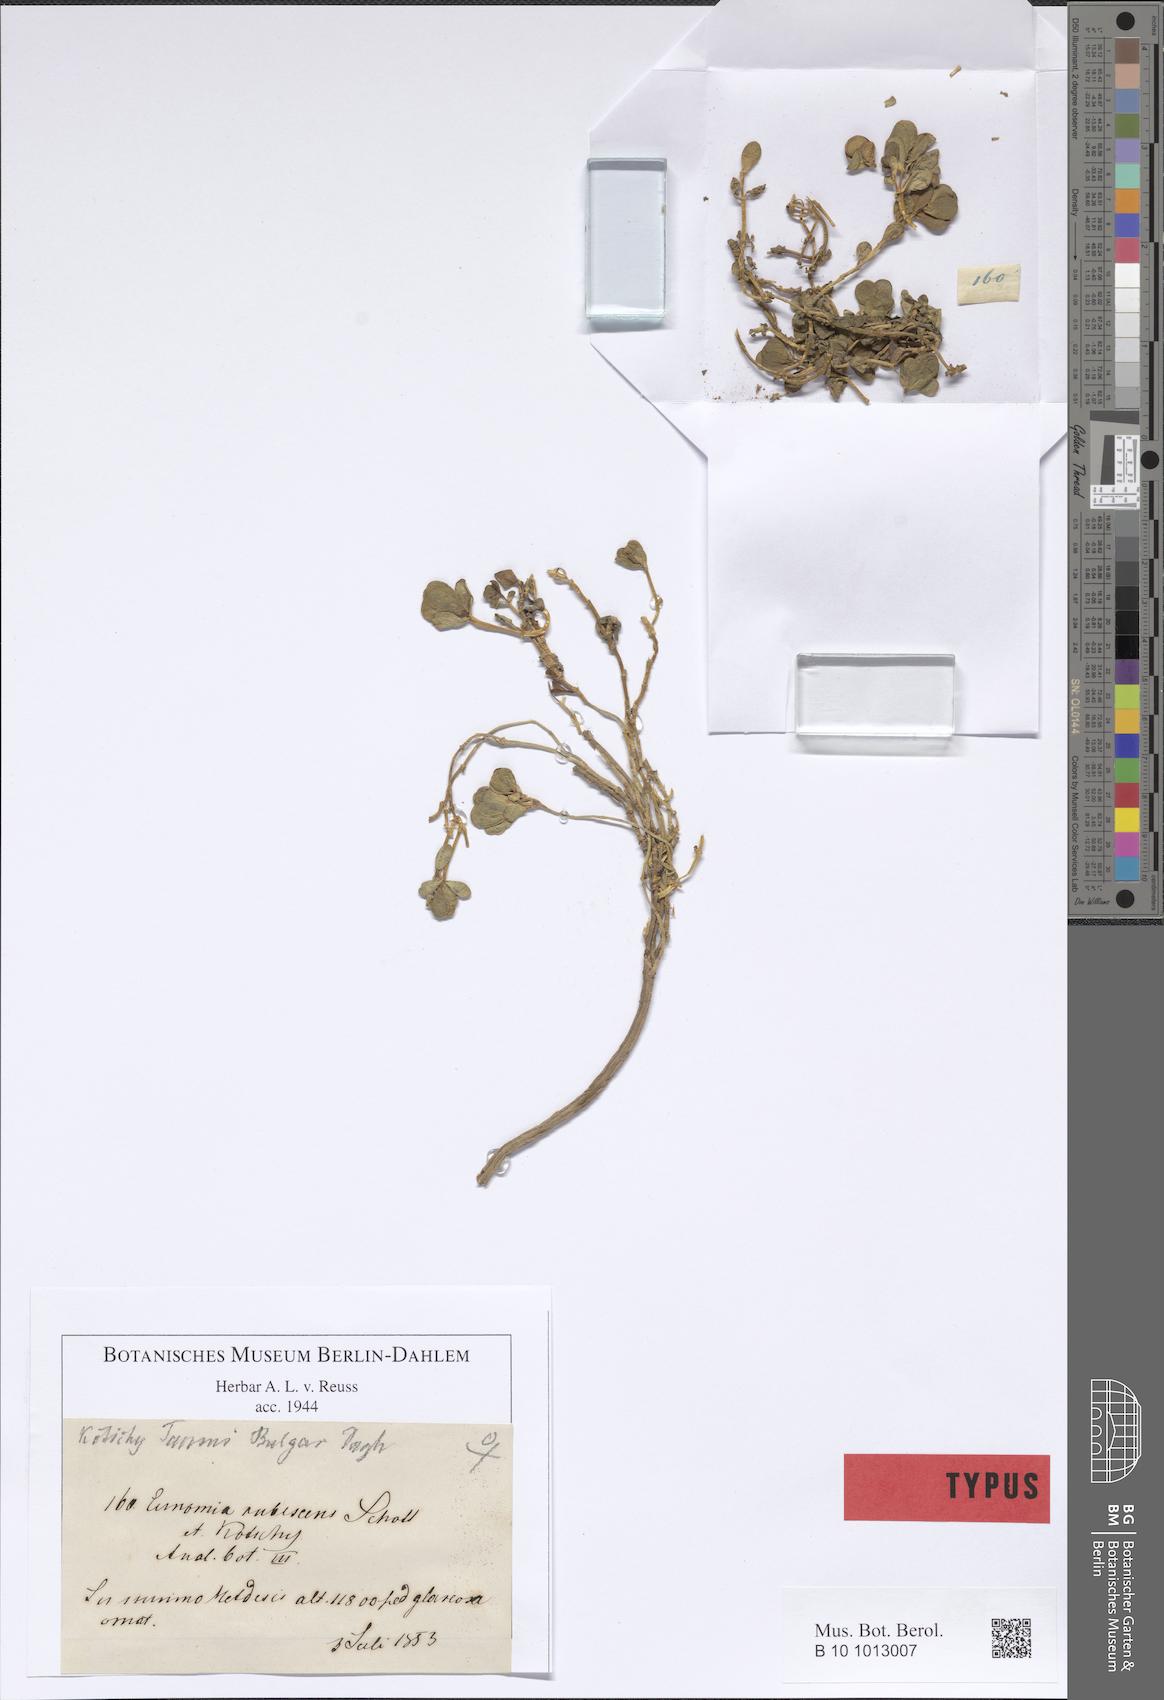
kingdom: Plantae
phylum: Tracheophyta
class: Magnoliopsida
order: Brassicales
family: Brassicaceae
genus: Noccaea
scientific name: Noccaea rubescens
